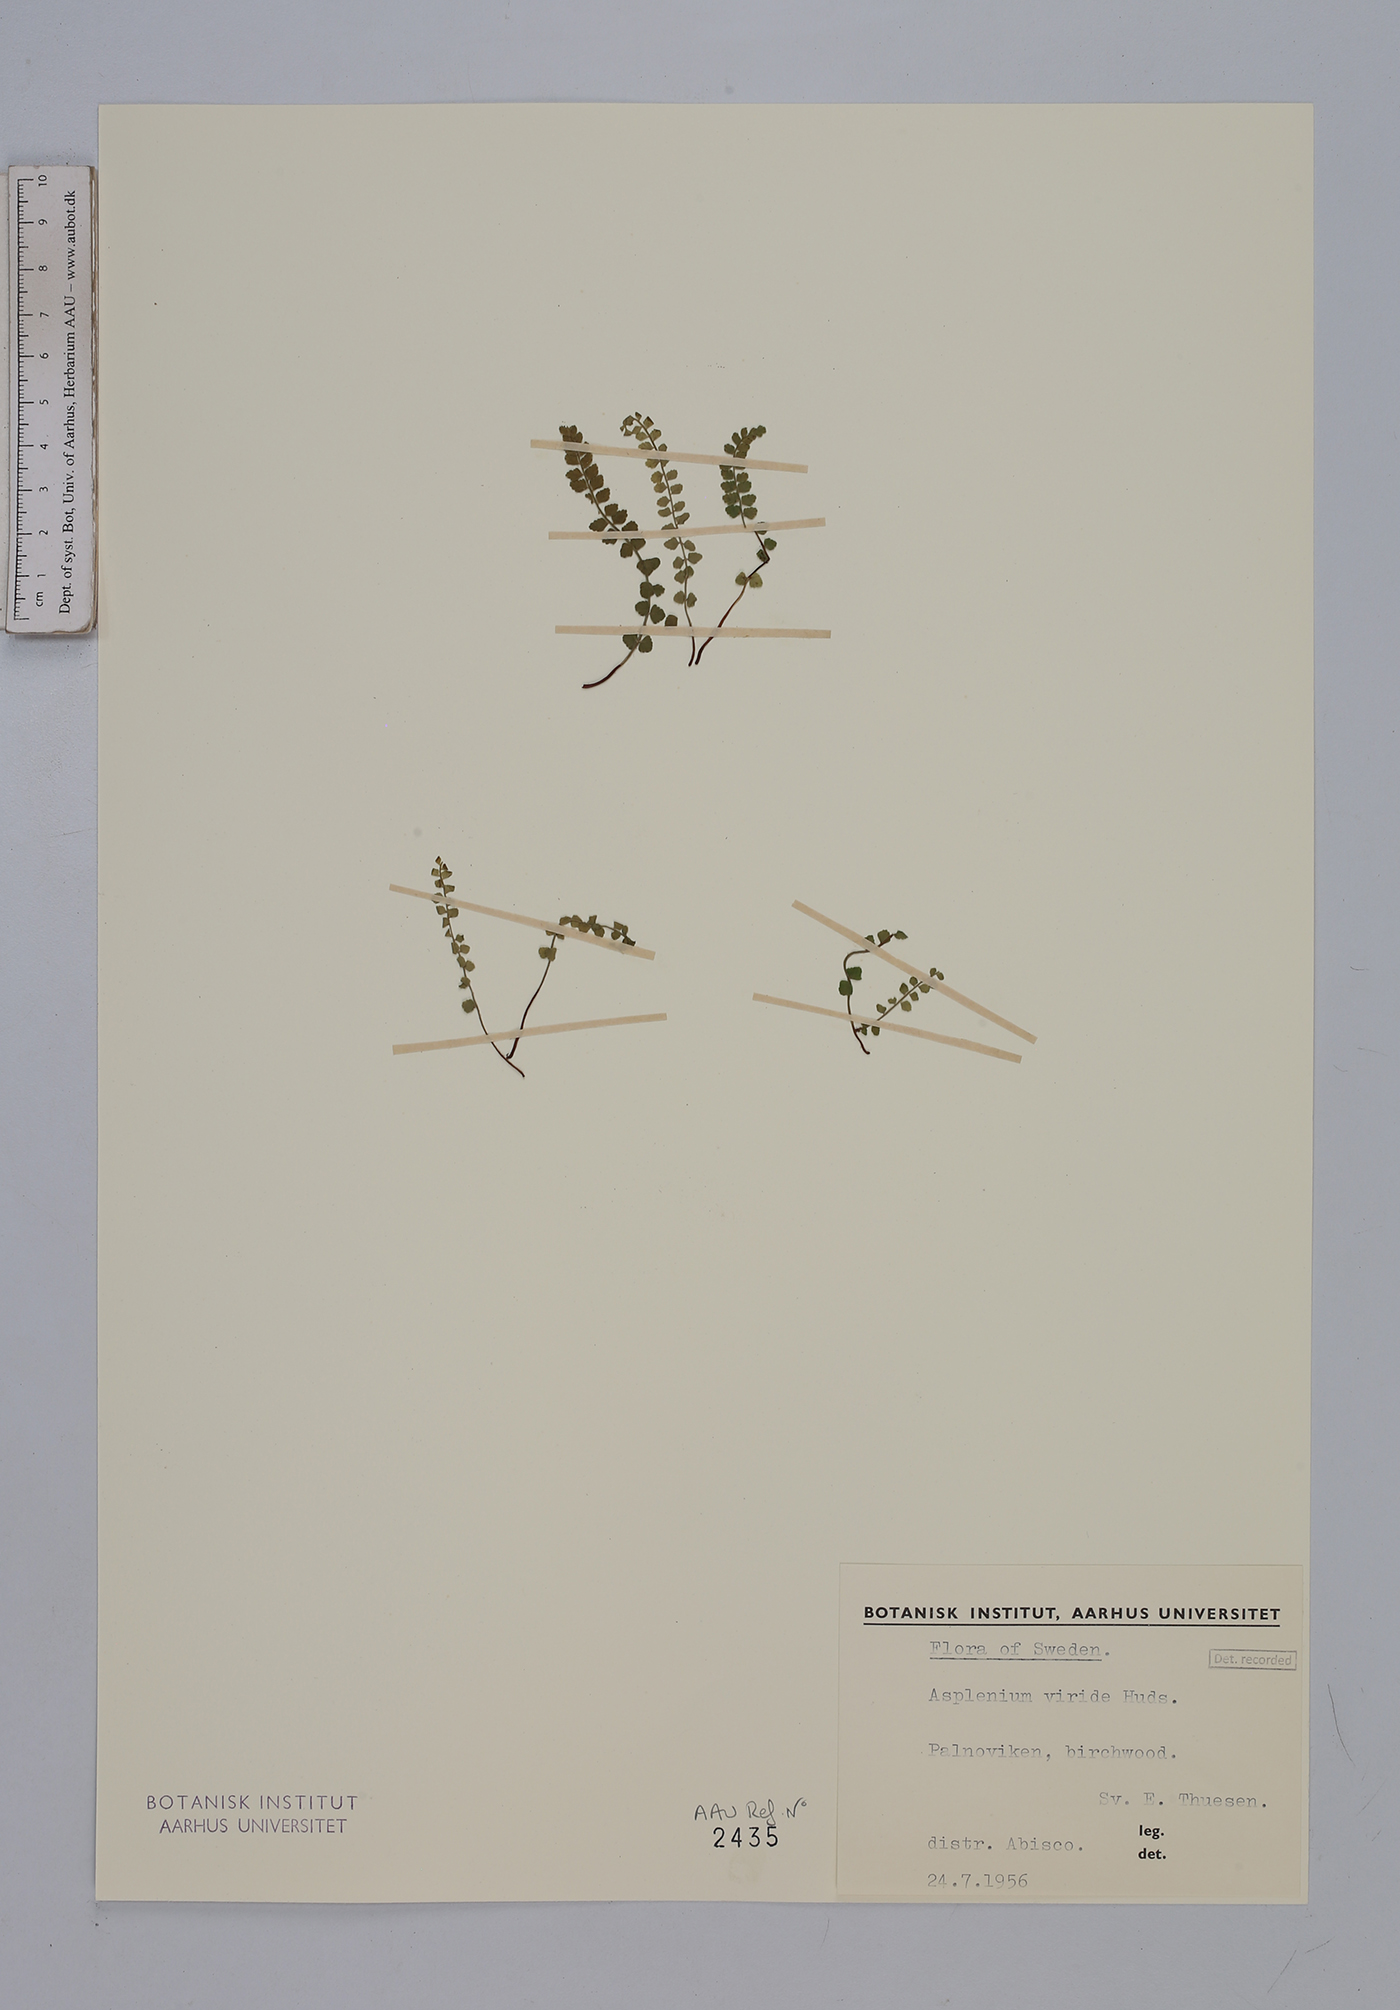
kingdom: Plantae
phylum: Tracheophyta
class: Polypodiopsida
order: Polypodiales
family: Aspleniaceae
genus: Asplenium
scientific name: Asplenium viride
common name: Green spleenwort
